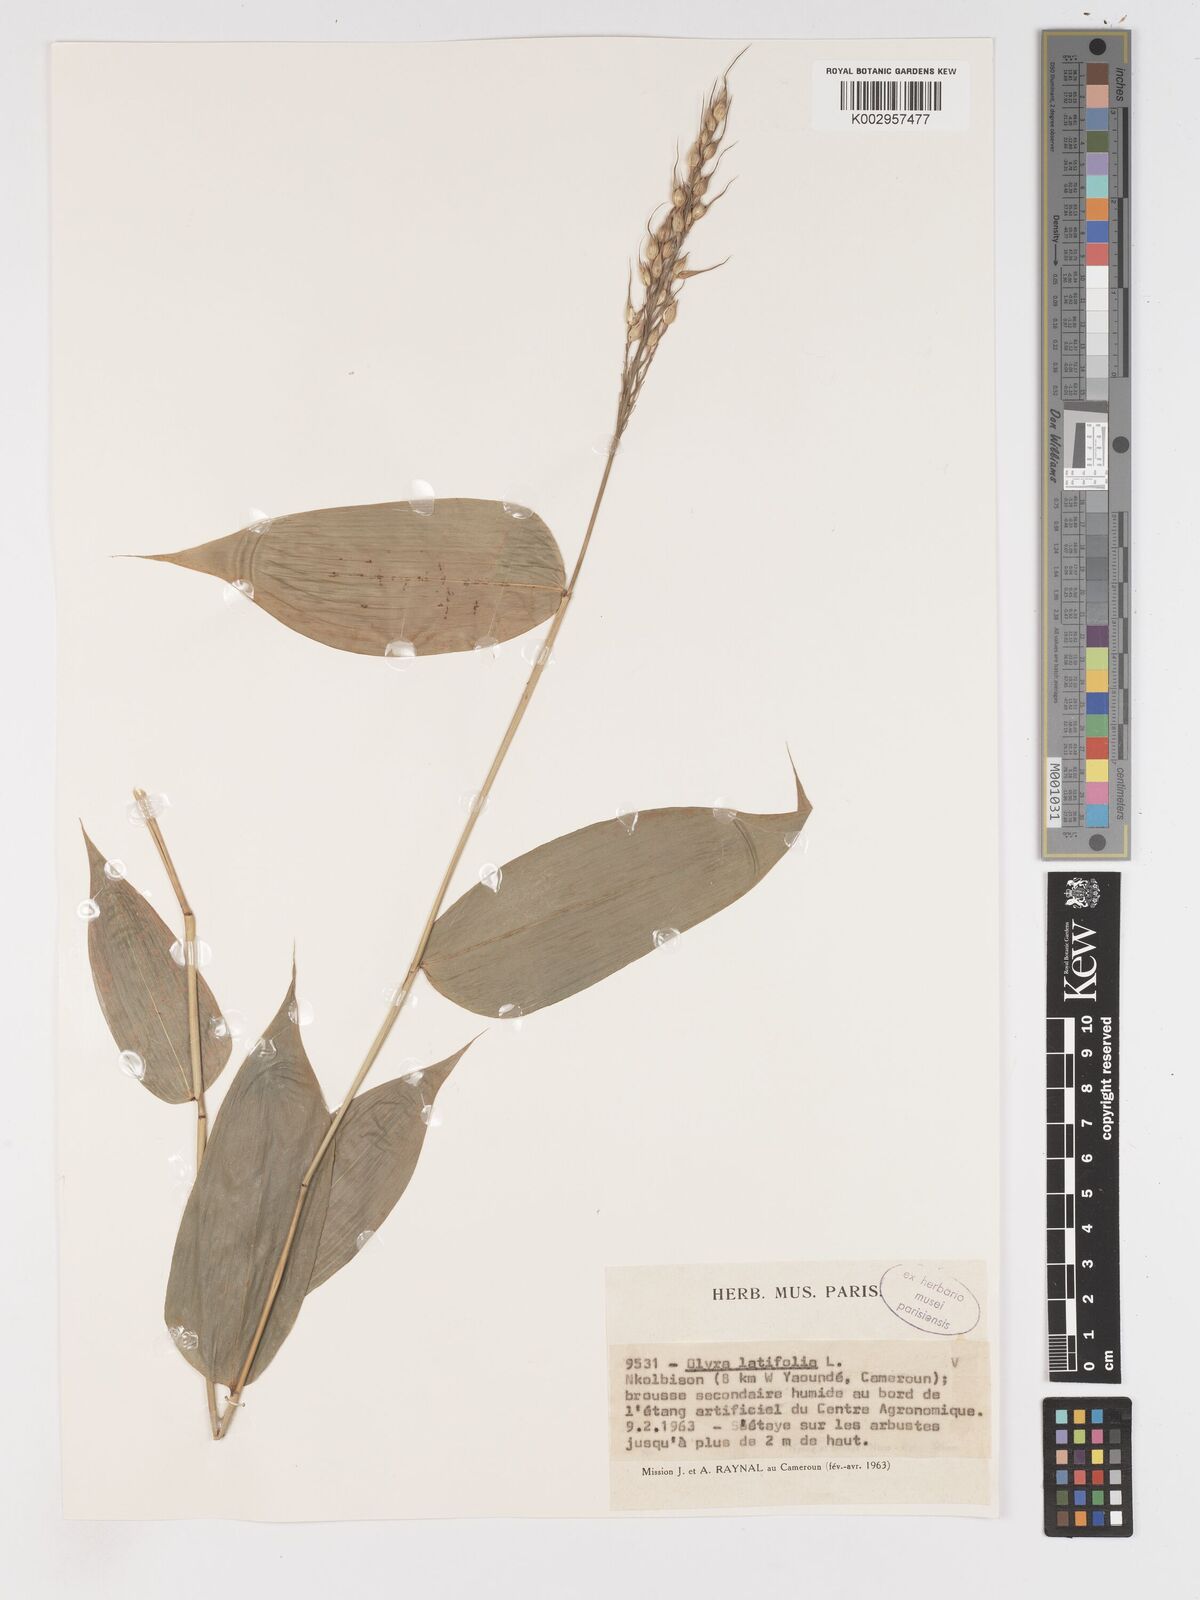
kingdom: Plantae
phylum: Tracheophyta
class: Liliopsida
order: Poales
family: Poaceae
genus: Olyra
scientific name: Olyra latifolia
